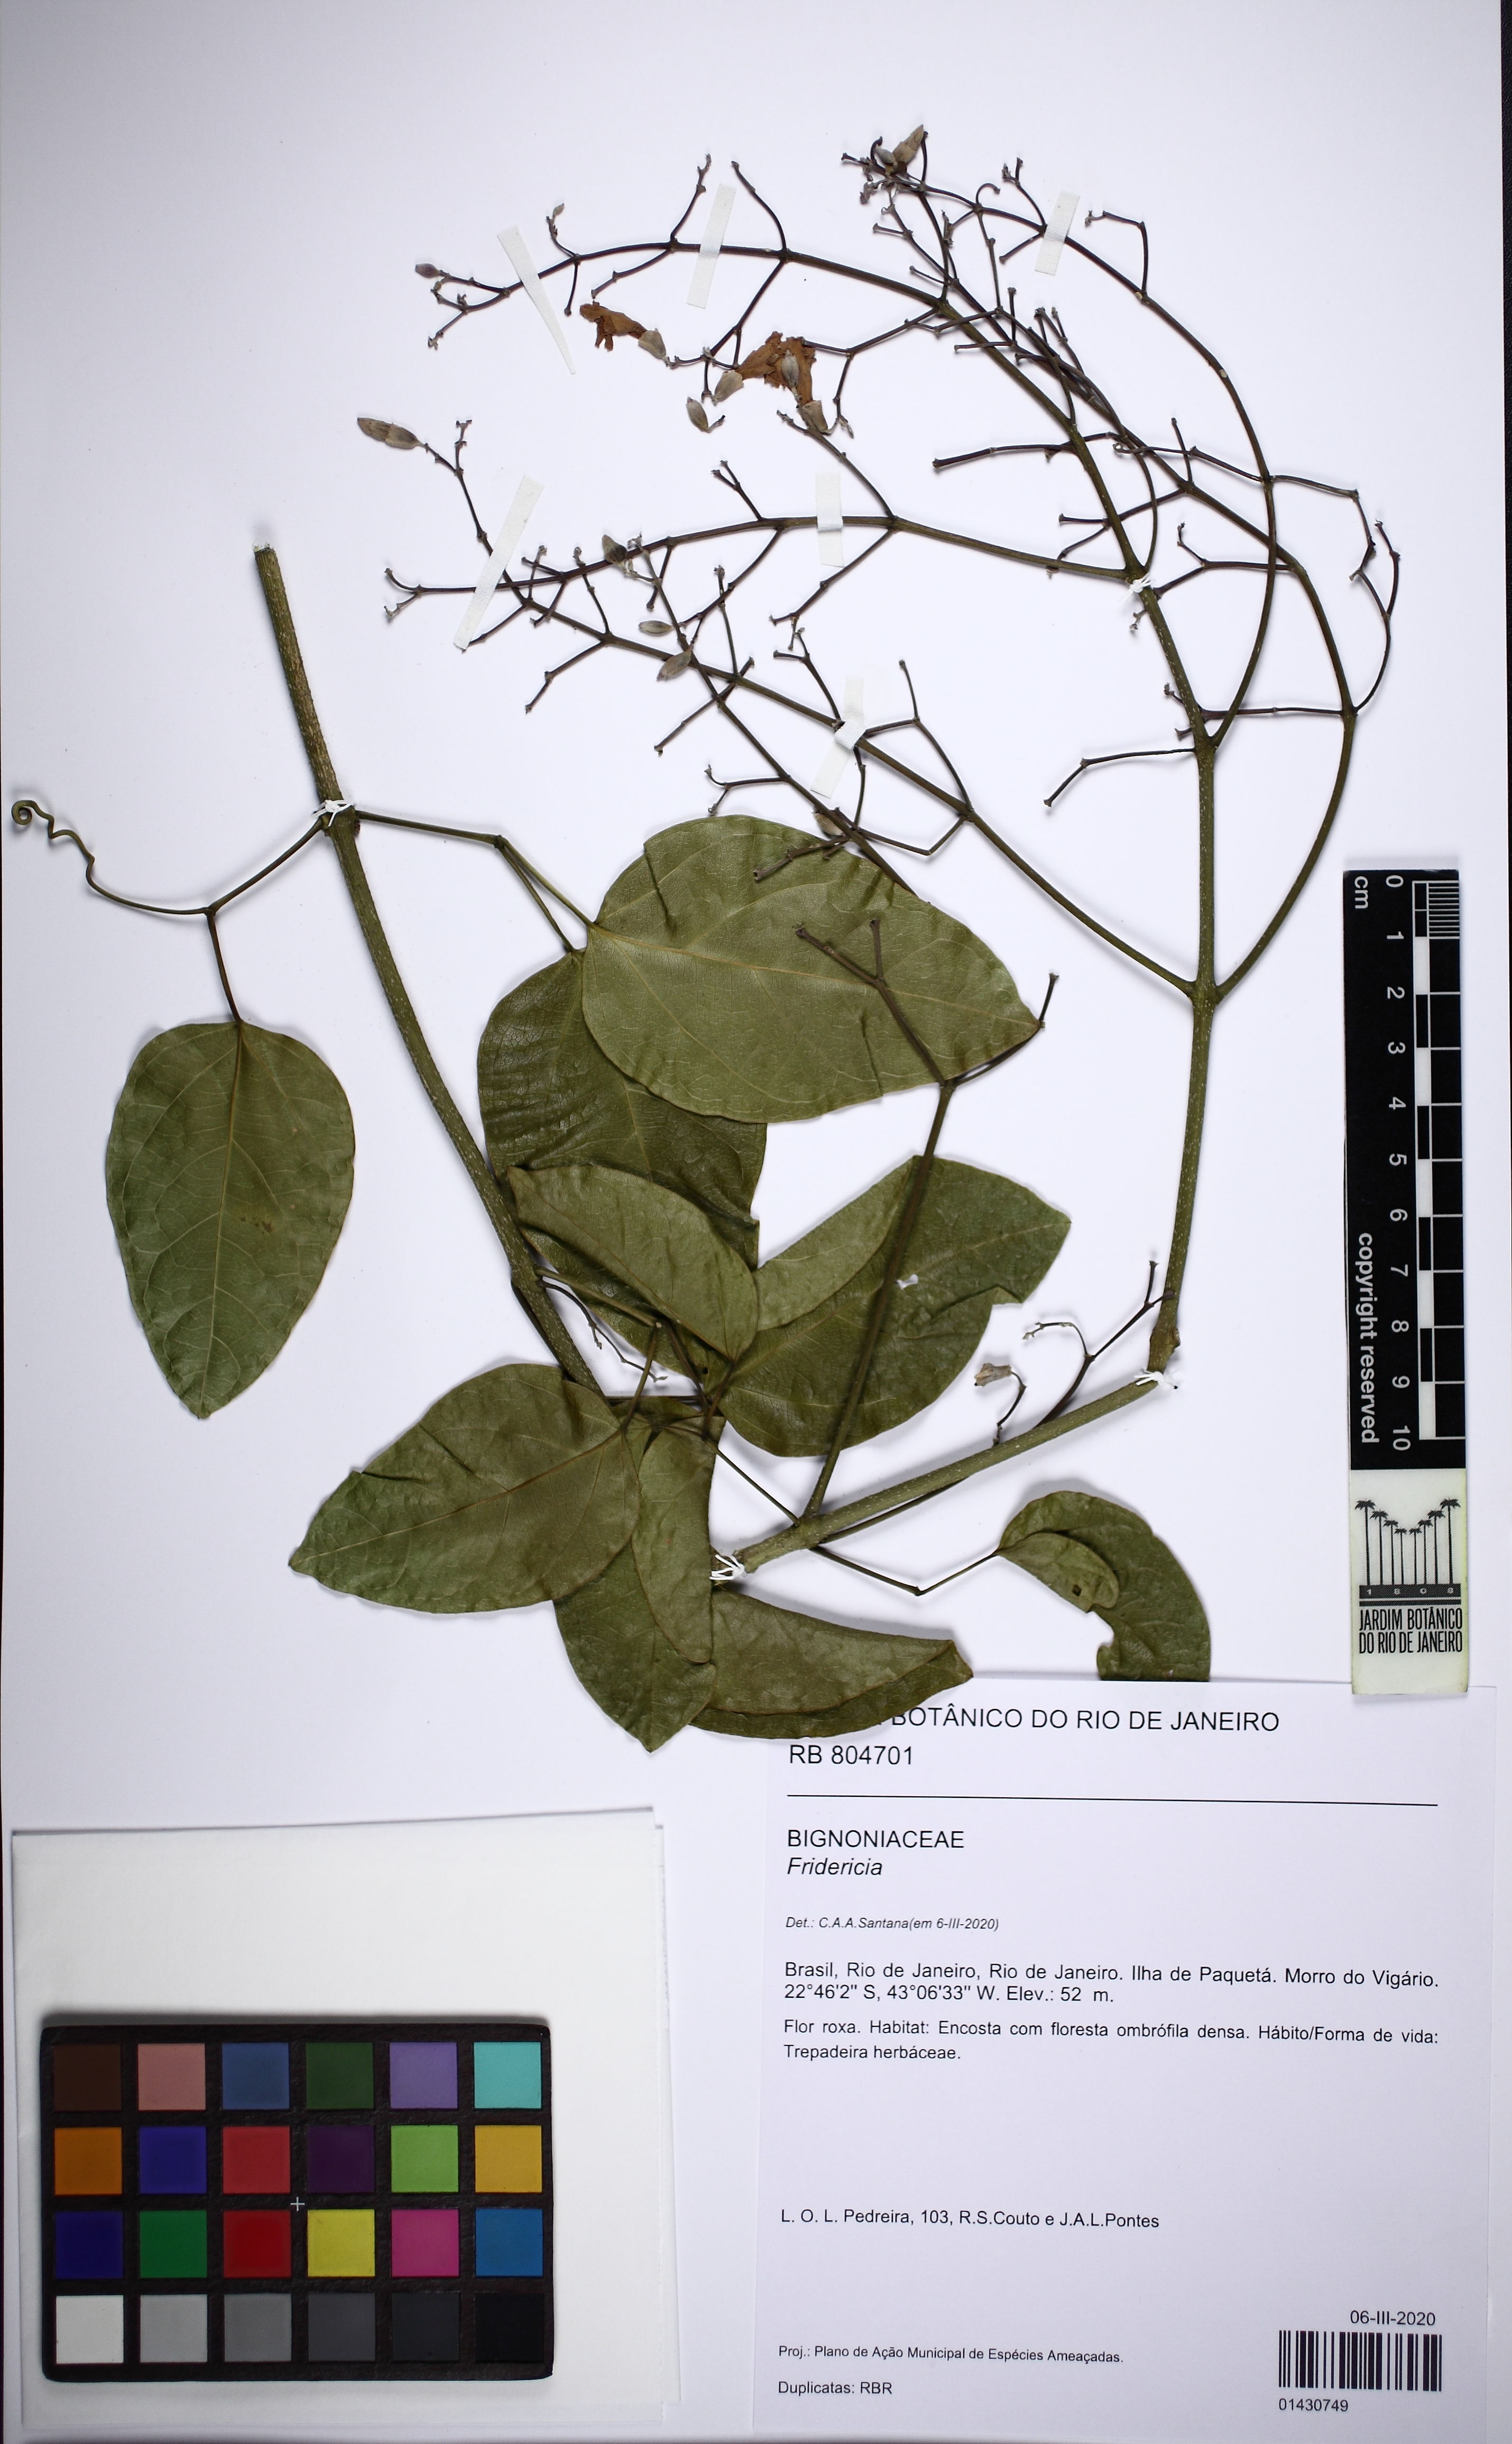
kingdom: Plantae
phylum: Tracheophyta
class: Magnoliopsida
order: Lamiales
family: Bignoniaceae
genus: Fridericia
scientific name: Fridericia conjugata
